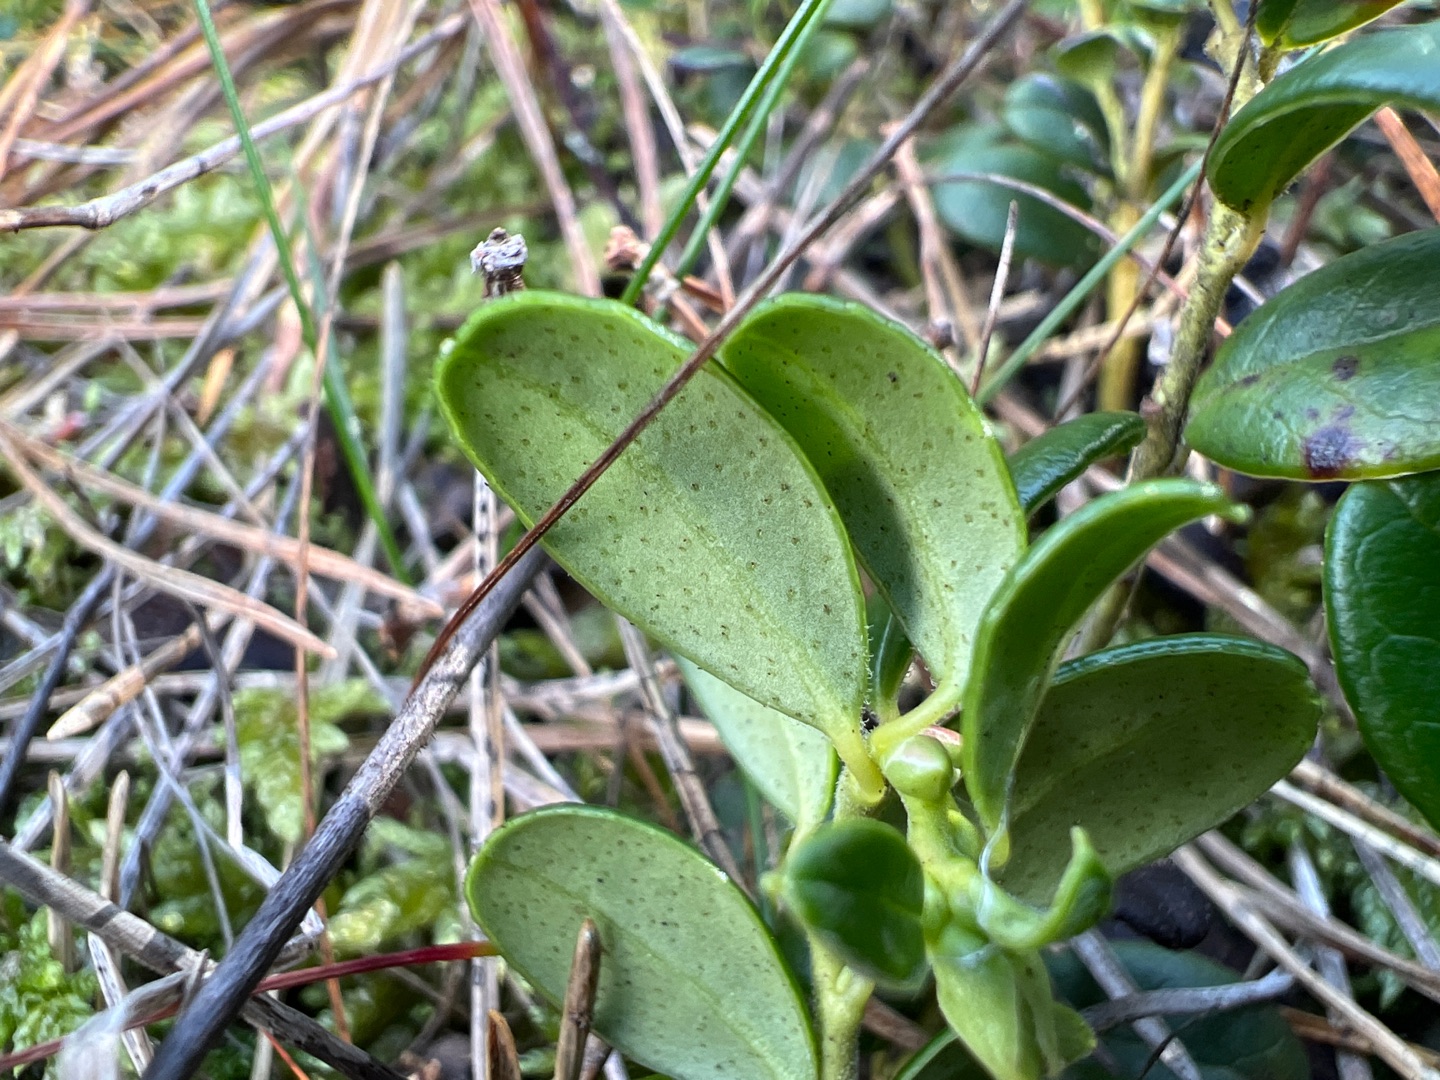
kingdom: Plantae
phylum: Tracheophyta
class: Magnoliopsida
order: Ericales
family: Ericaceae
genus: Vaccinium
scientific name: Vaccinium vitis-idaea
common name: Tyttebær
